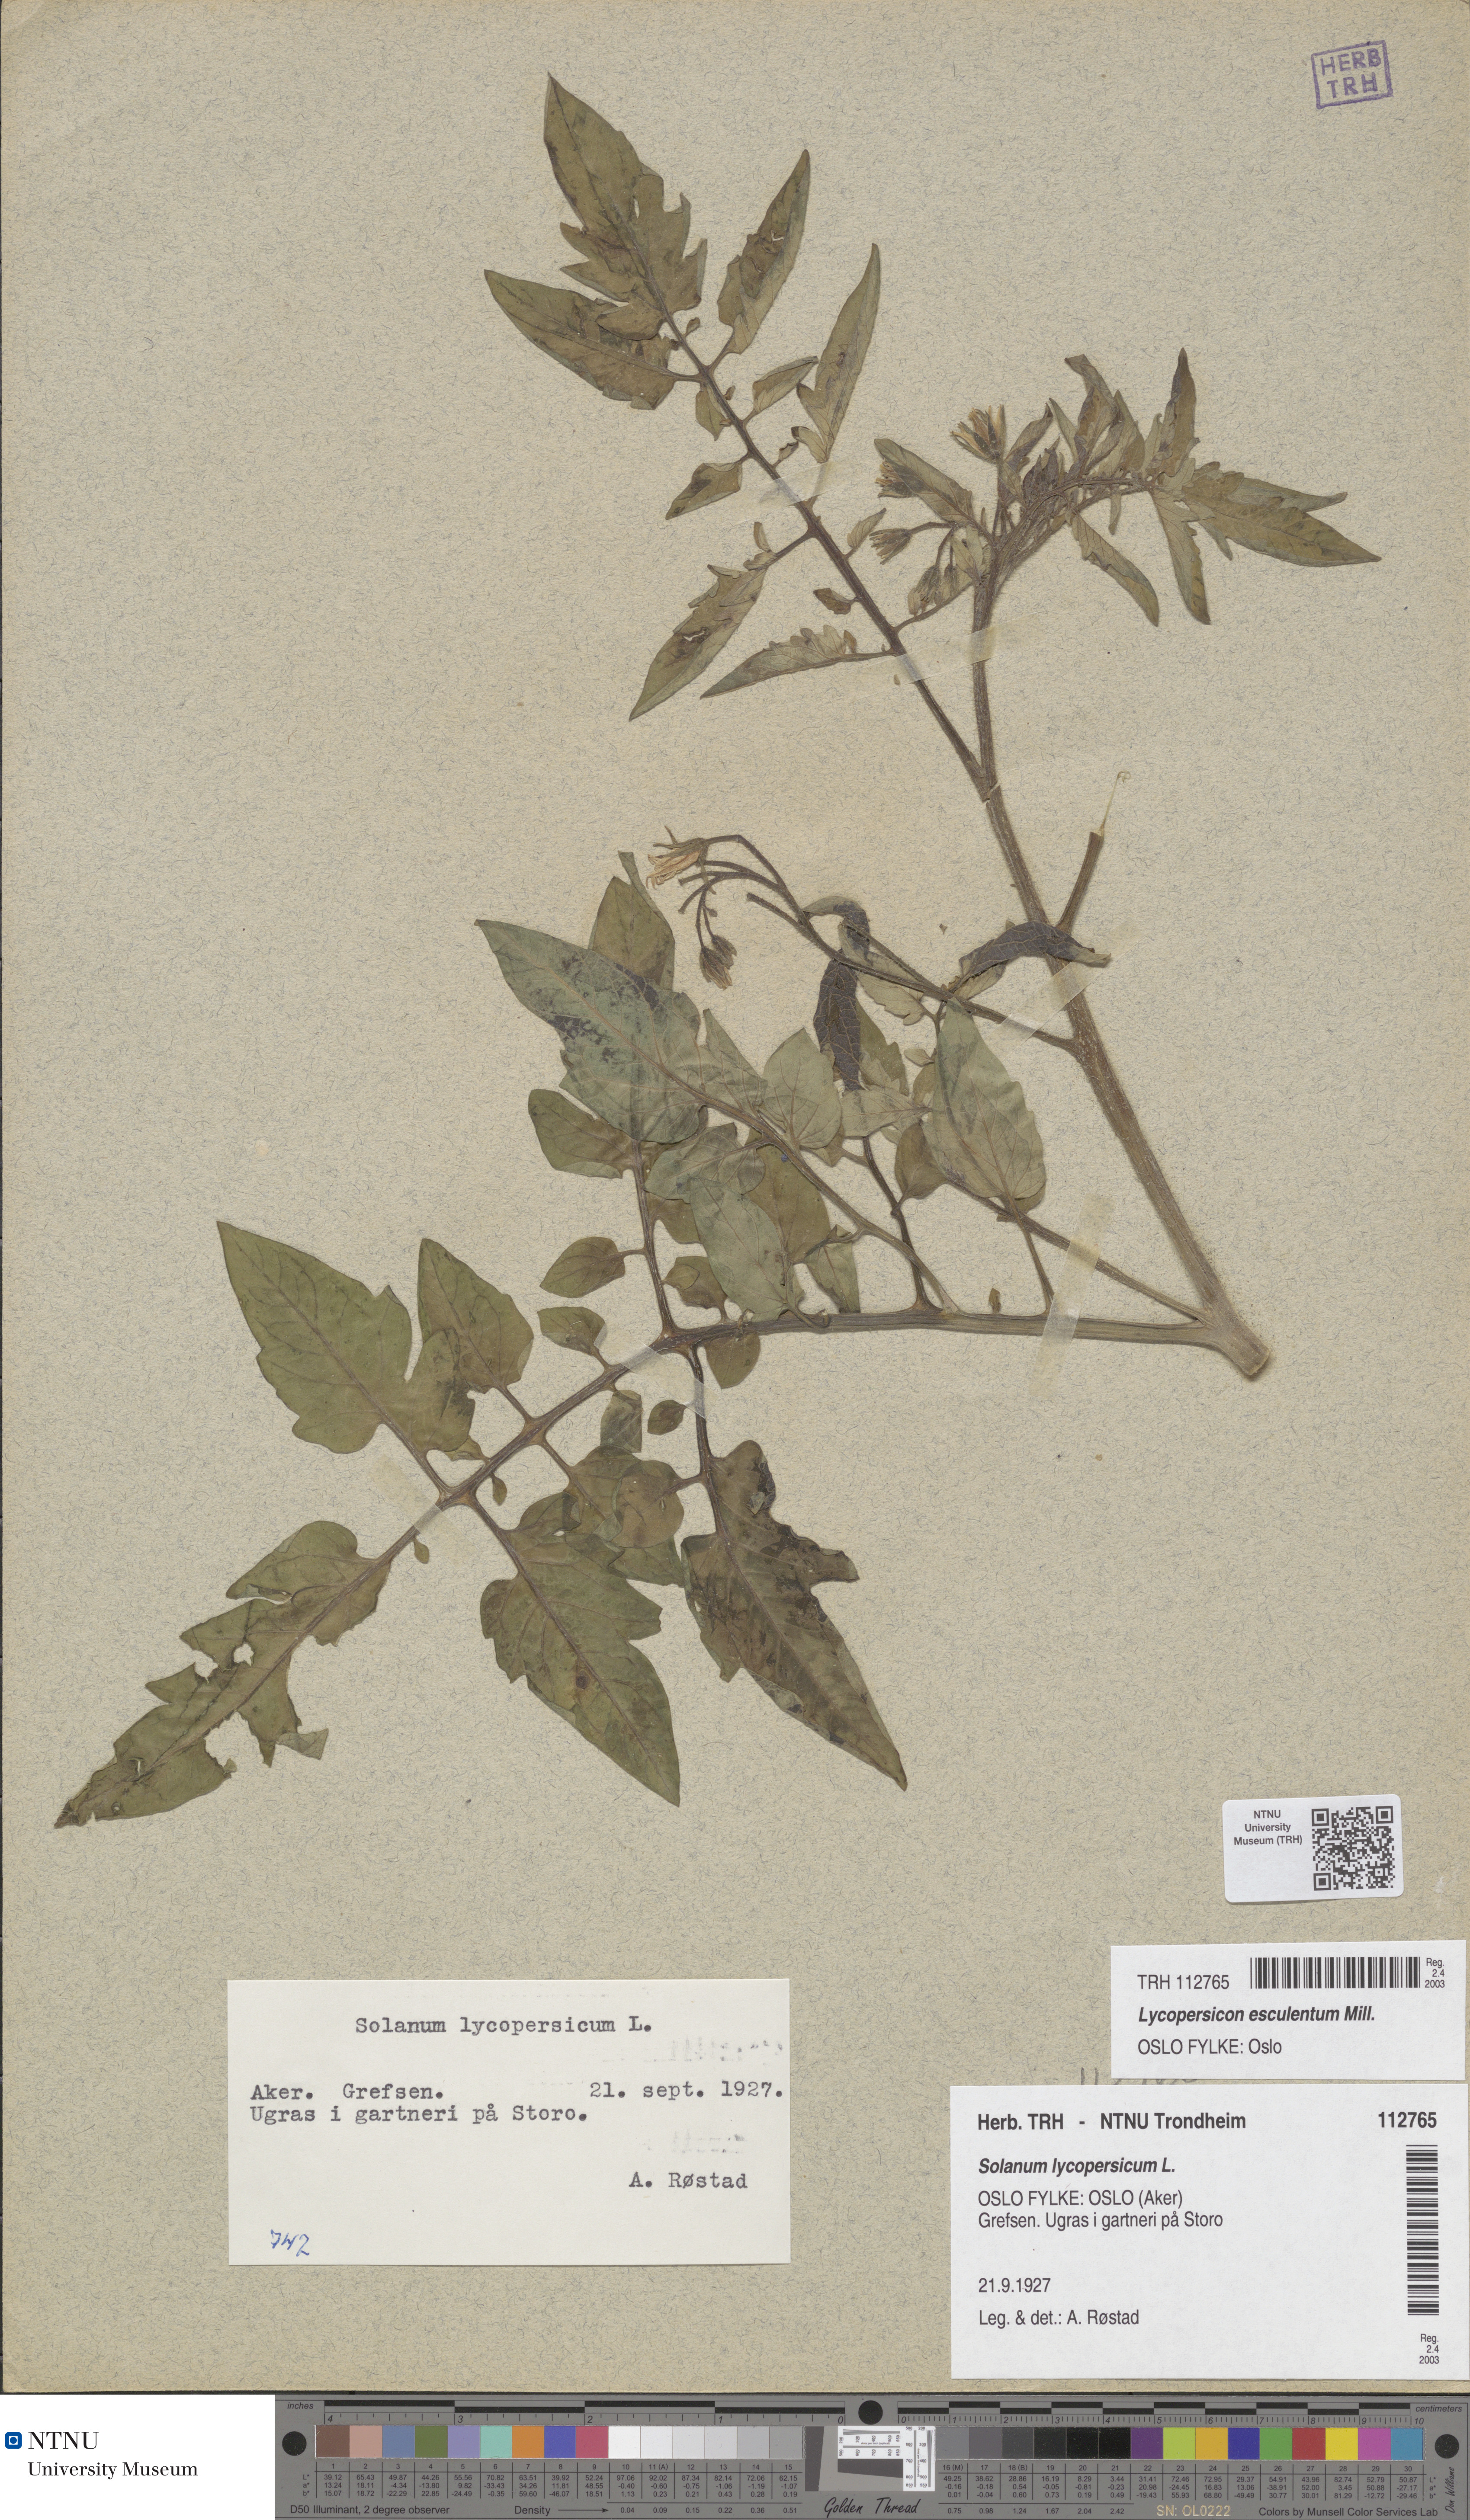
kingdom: Plantae
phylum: Tracheophyta
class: Magnoliopsida
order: Solanales
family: Solanaceae
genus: Solanum
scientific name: Solanum
